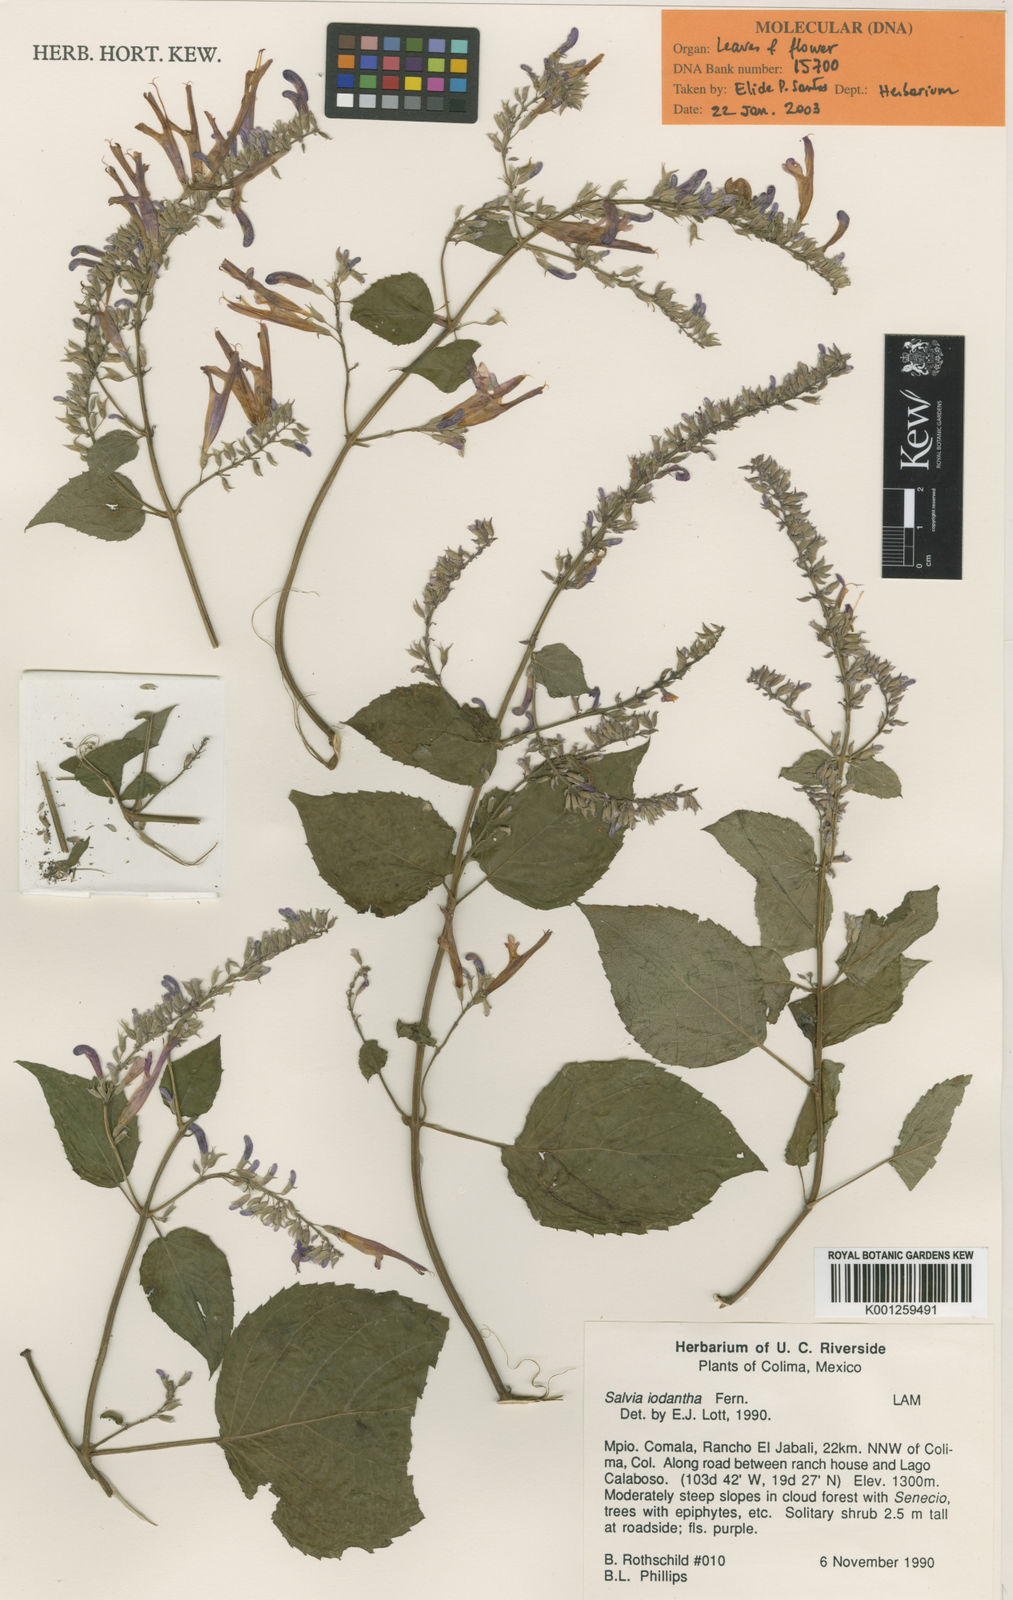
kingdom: Plantae
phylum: Tracheophyta
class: Magnoliopsida
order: Lamiales
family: Lamiaceae
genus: Salvia
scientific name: Salvia iodantha
